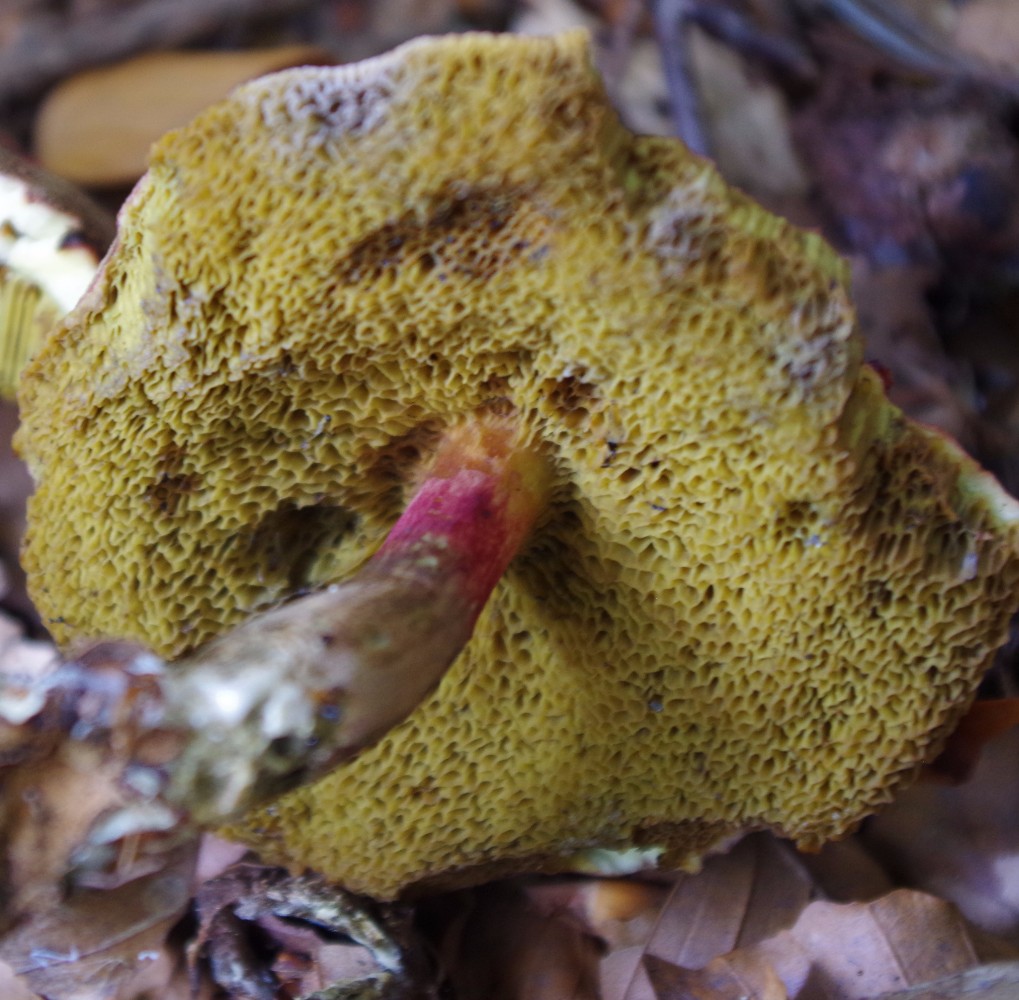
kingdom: Fungi
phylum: Basidiomycota
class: Agaricomycetes
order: Boletales
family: Boletaceae
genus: Xerocomellus
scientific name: Xerocomellus pruinatus
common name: dugget rørhat
